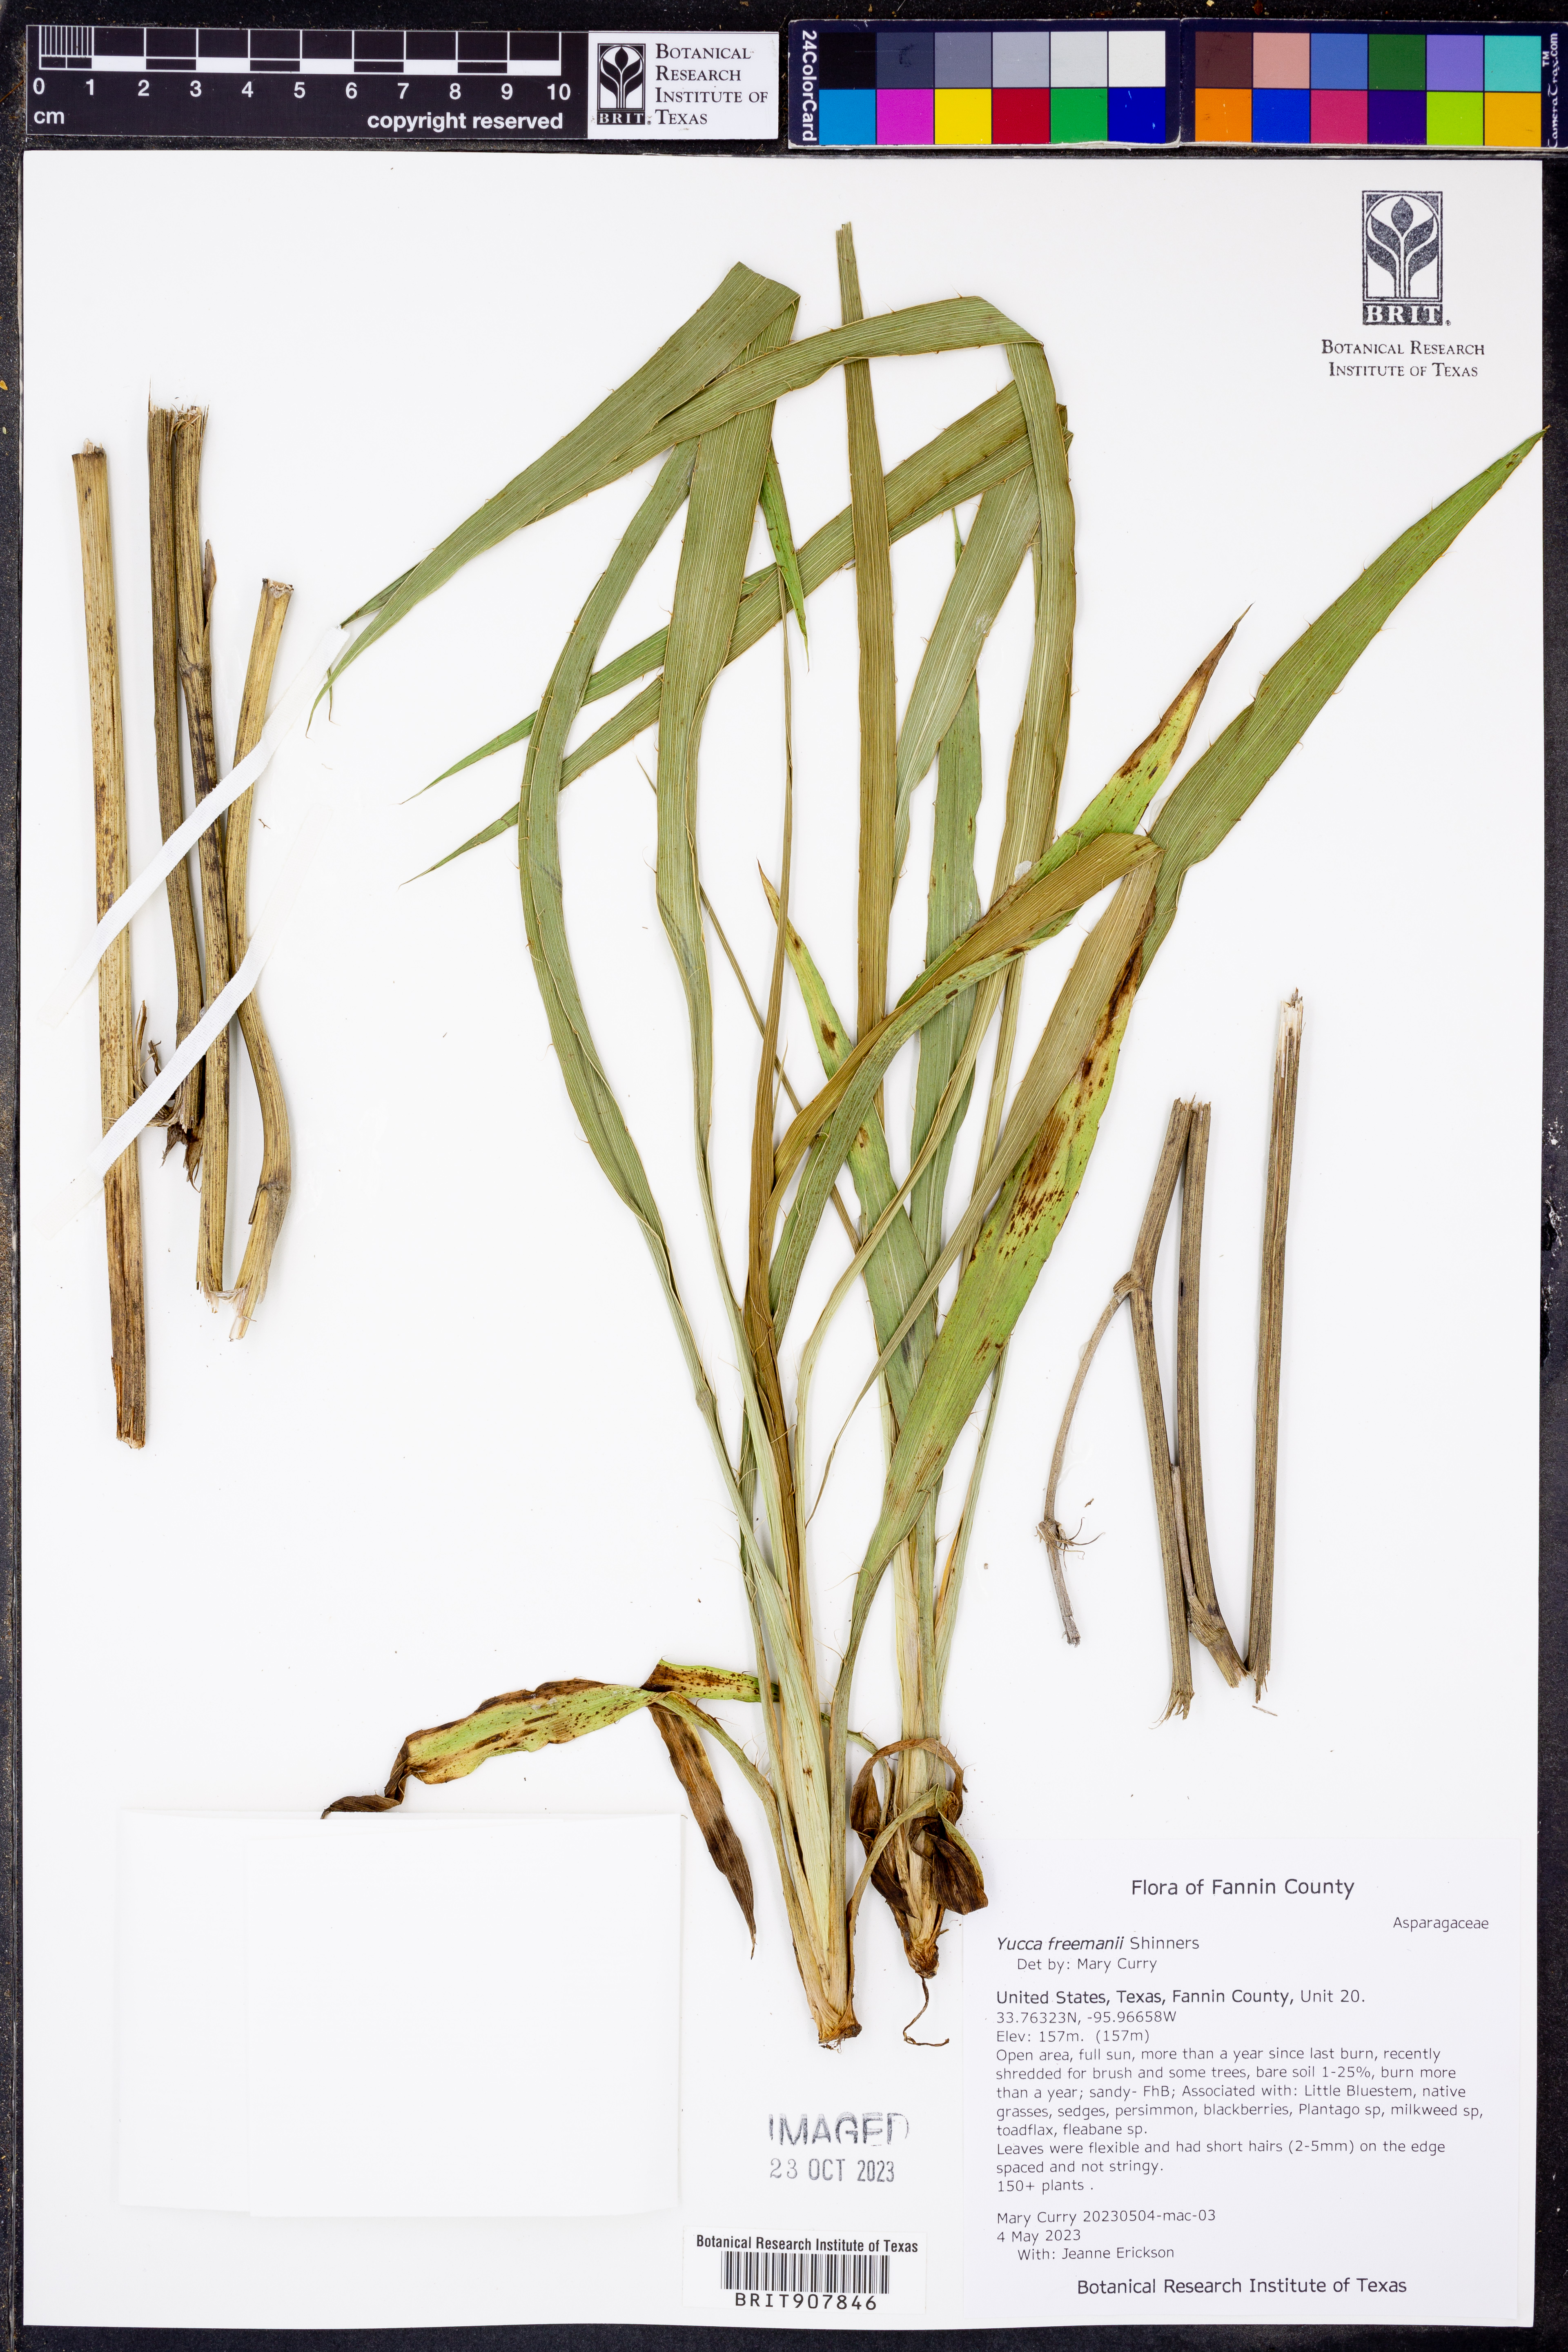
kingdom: Plantae
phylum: Tracheophyta
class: Liliopsida
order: Asparagales
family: Asparagaceae
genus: Yucca
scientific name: Yucca flaccida
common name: Adam's-needle
